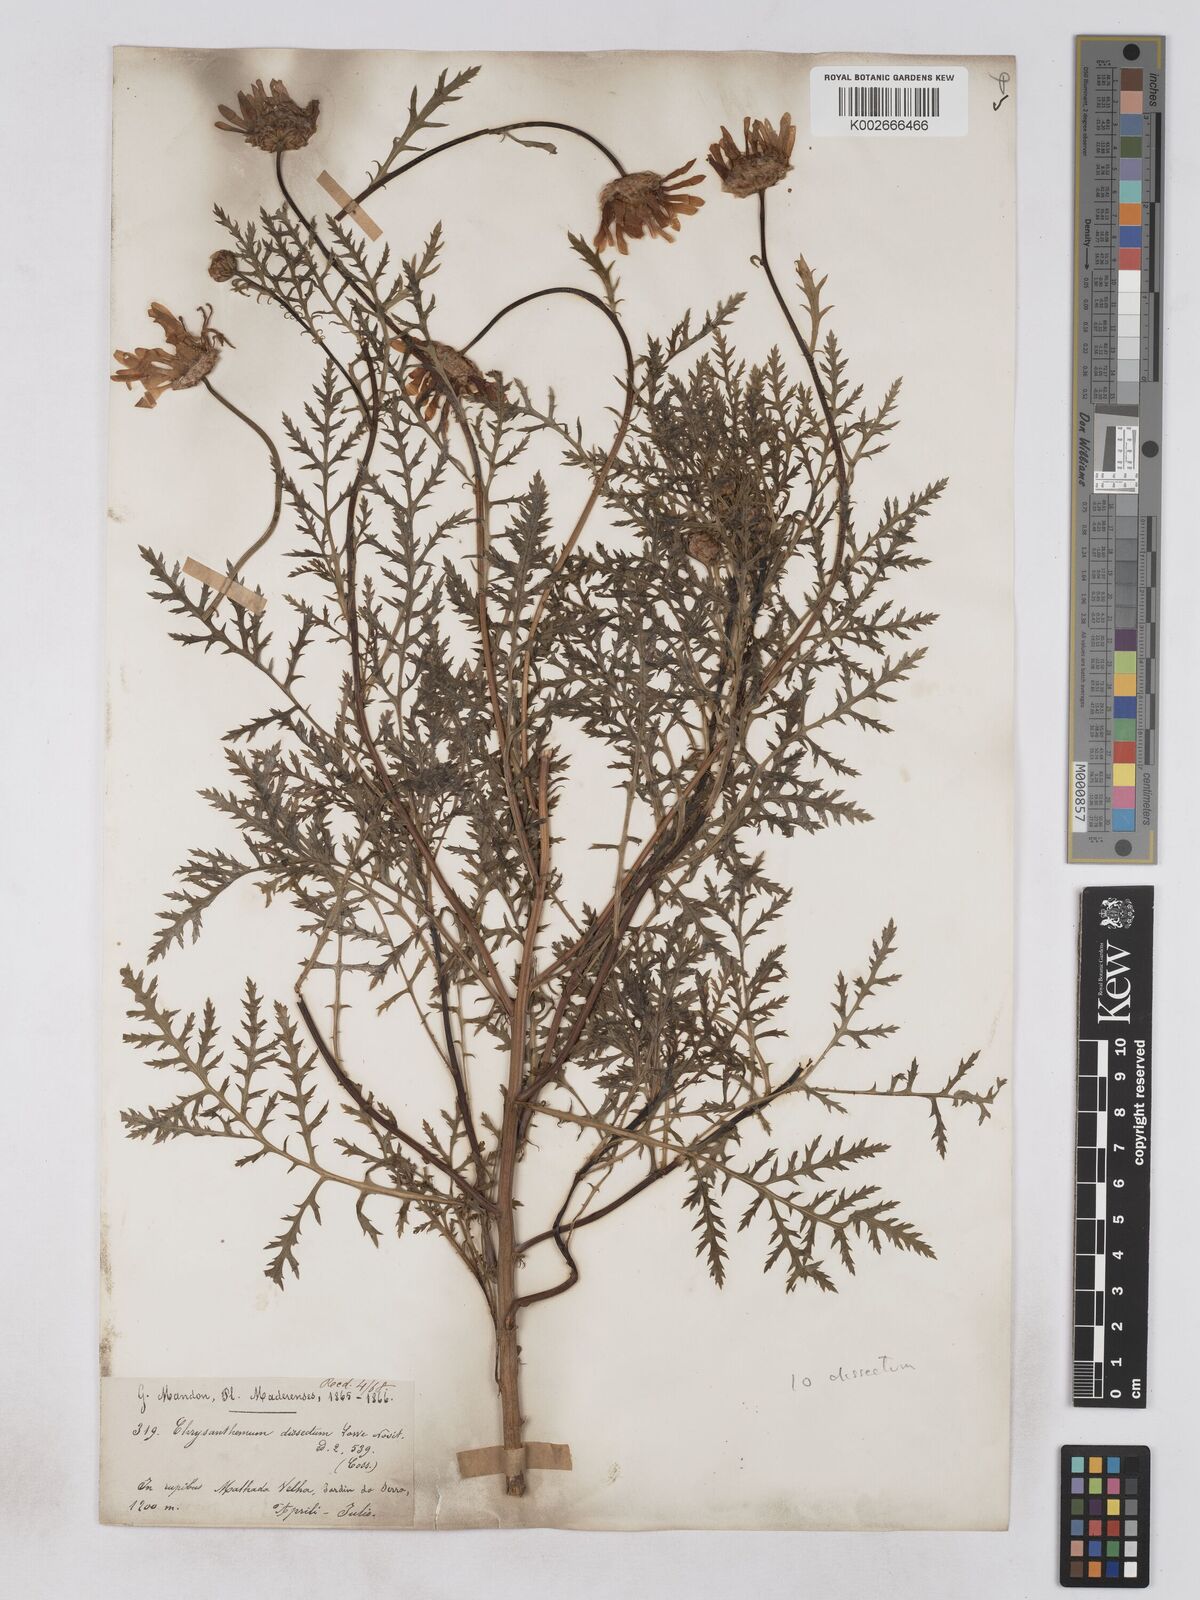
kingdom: Plantae
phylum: Tracheophyta
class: Magnoliopsida
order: Asterales
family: Asteraceae
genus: Argyranthemum
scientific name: Argyranthemum dissectum
